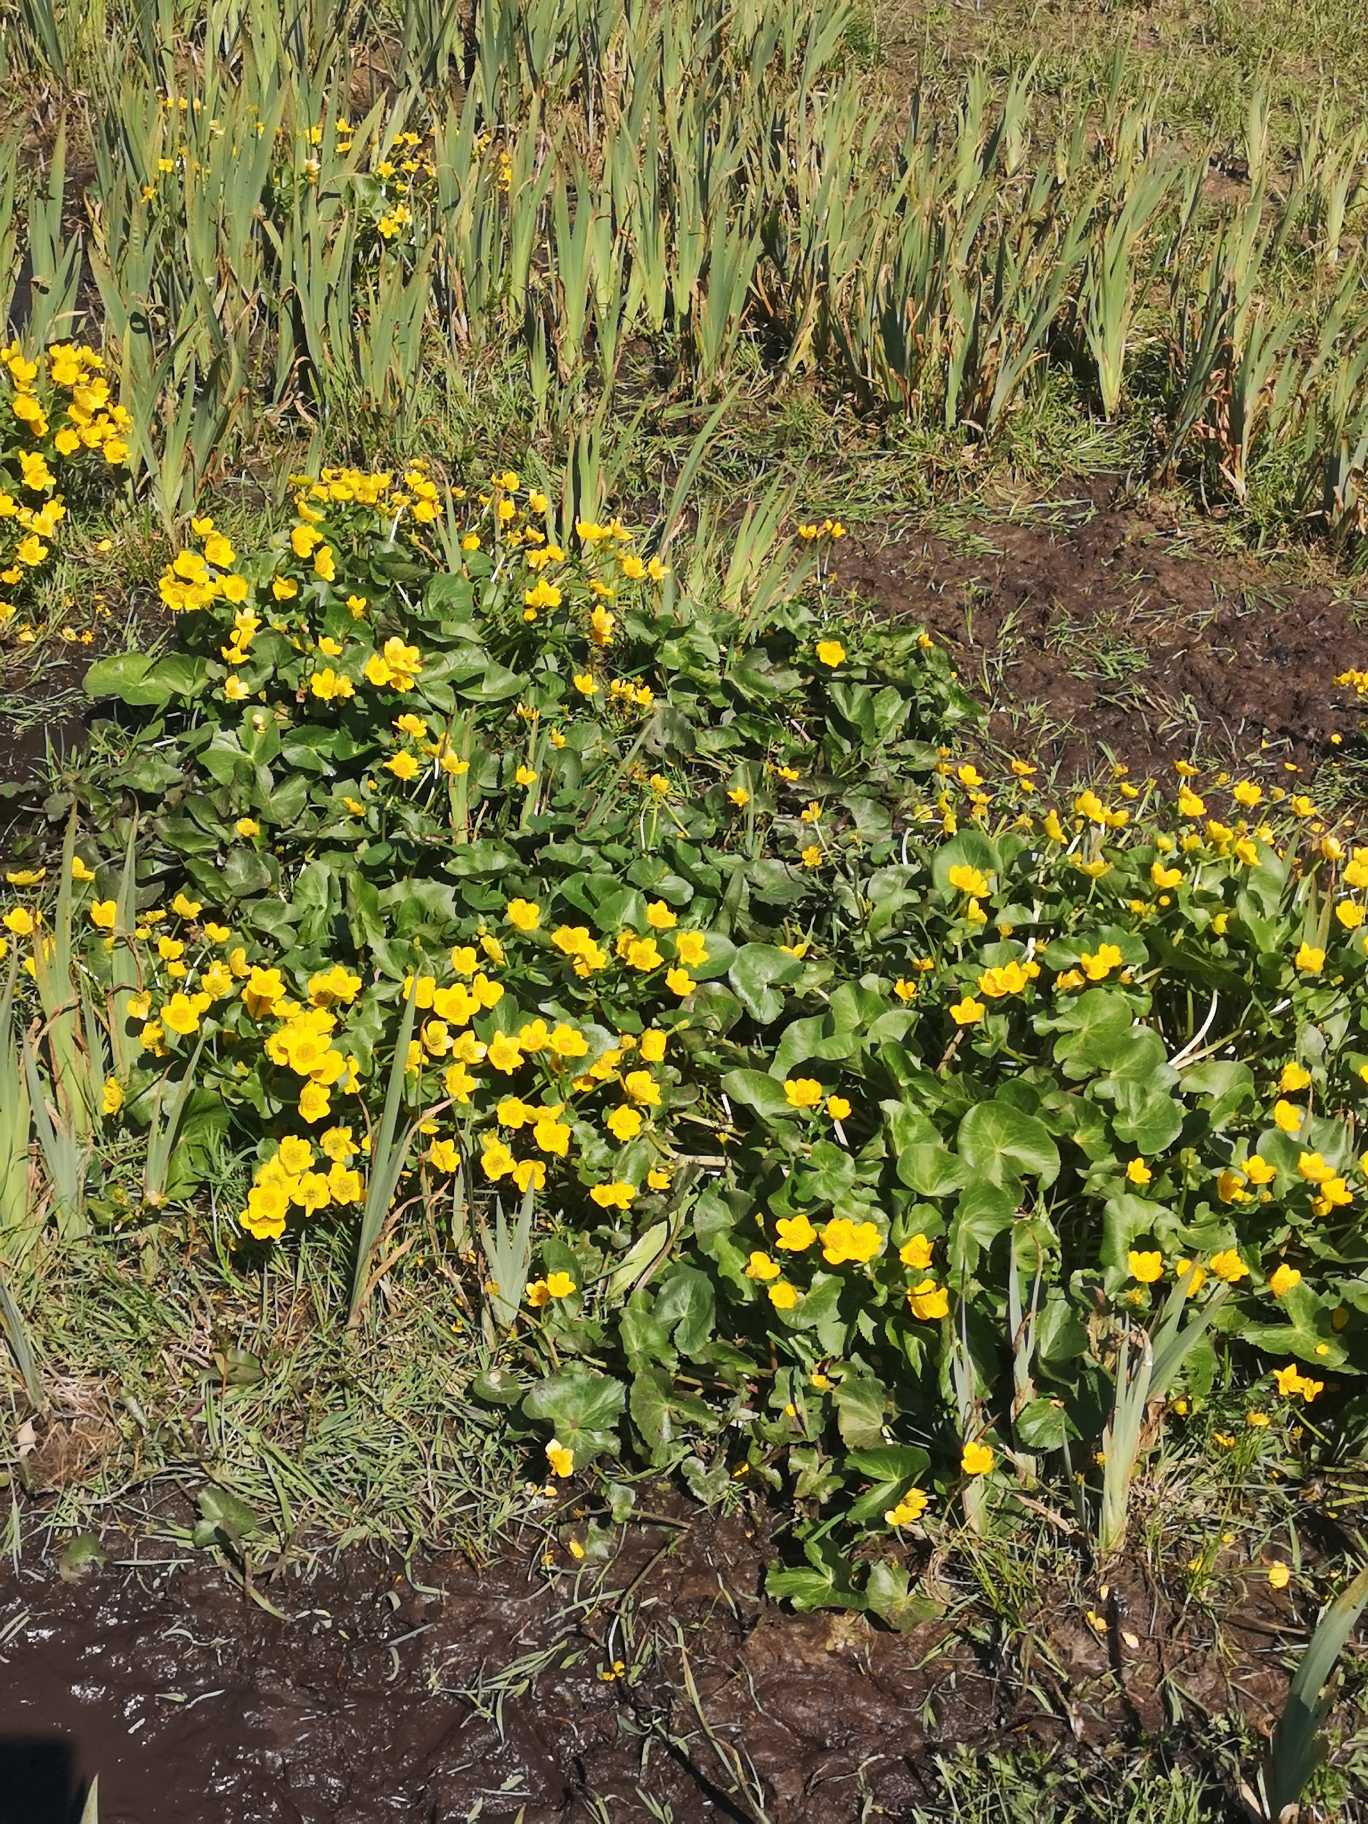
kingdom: Plantae
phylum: Tracheophyta
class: Magnoliopsida
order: Ranunculales
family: Ranunculaceae
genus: Caltha
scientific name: Caltha palustris
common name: Eng-kabbeleje
